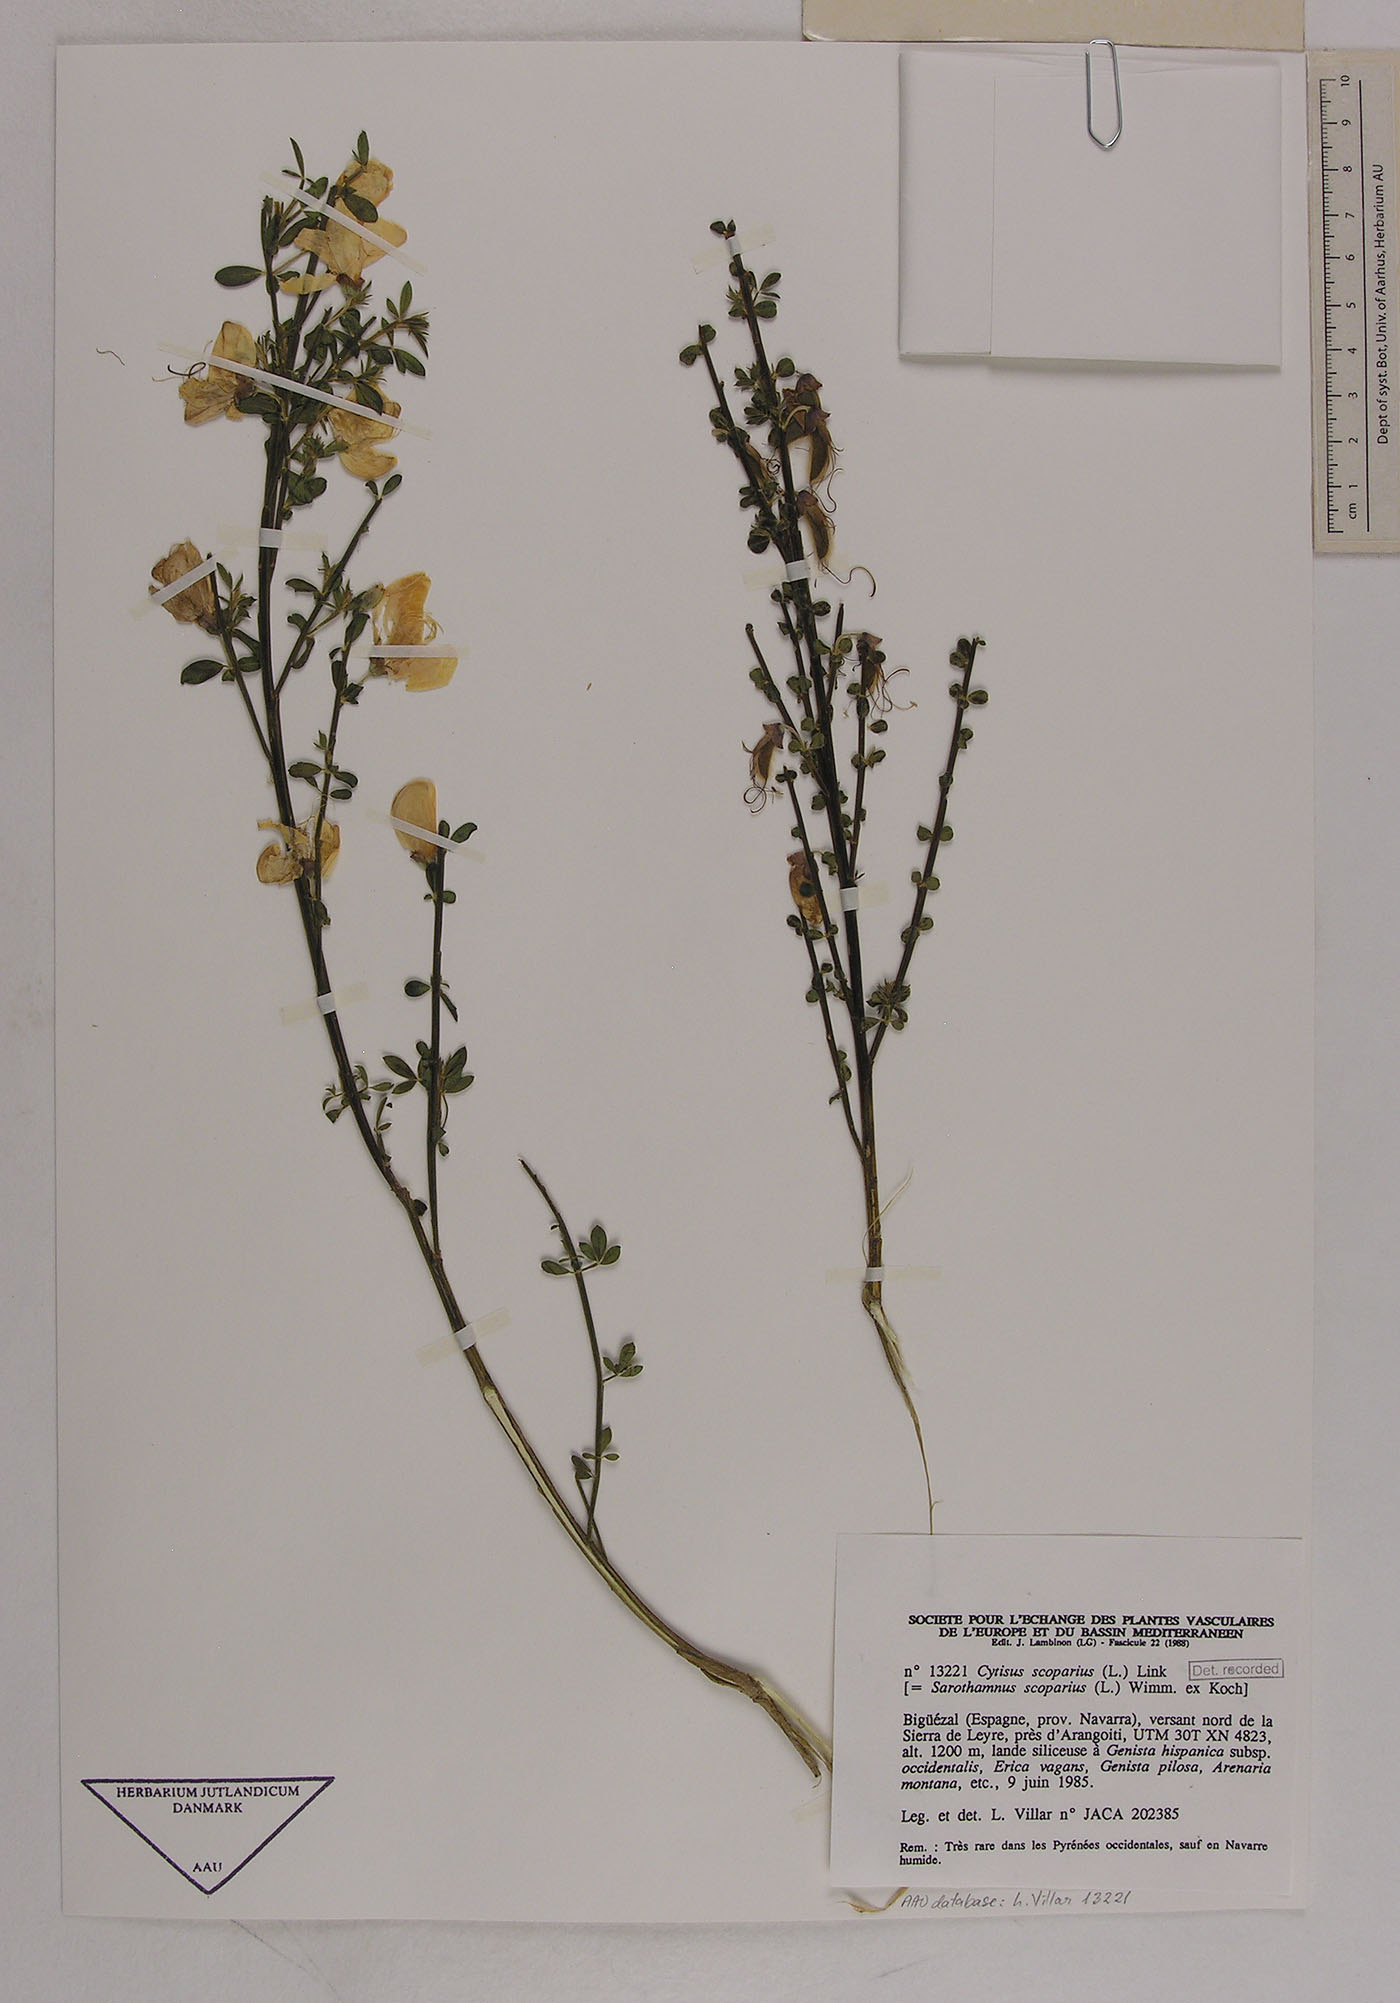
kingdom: Plantae
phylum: Tracheophyta
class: Magnoliopsida
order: Fabales
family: Fabaceae
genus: Cytisus
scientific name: Cytisus scoparius
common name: Scotch broom
